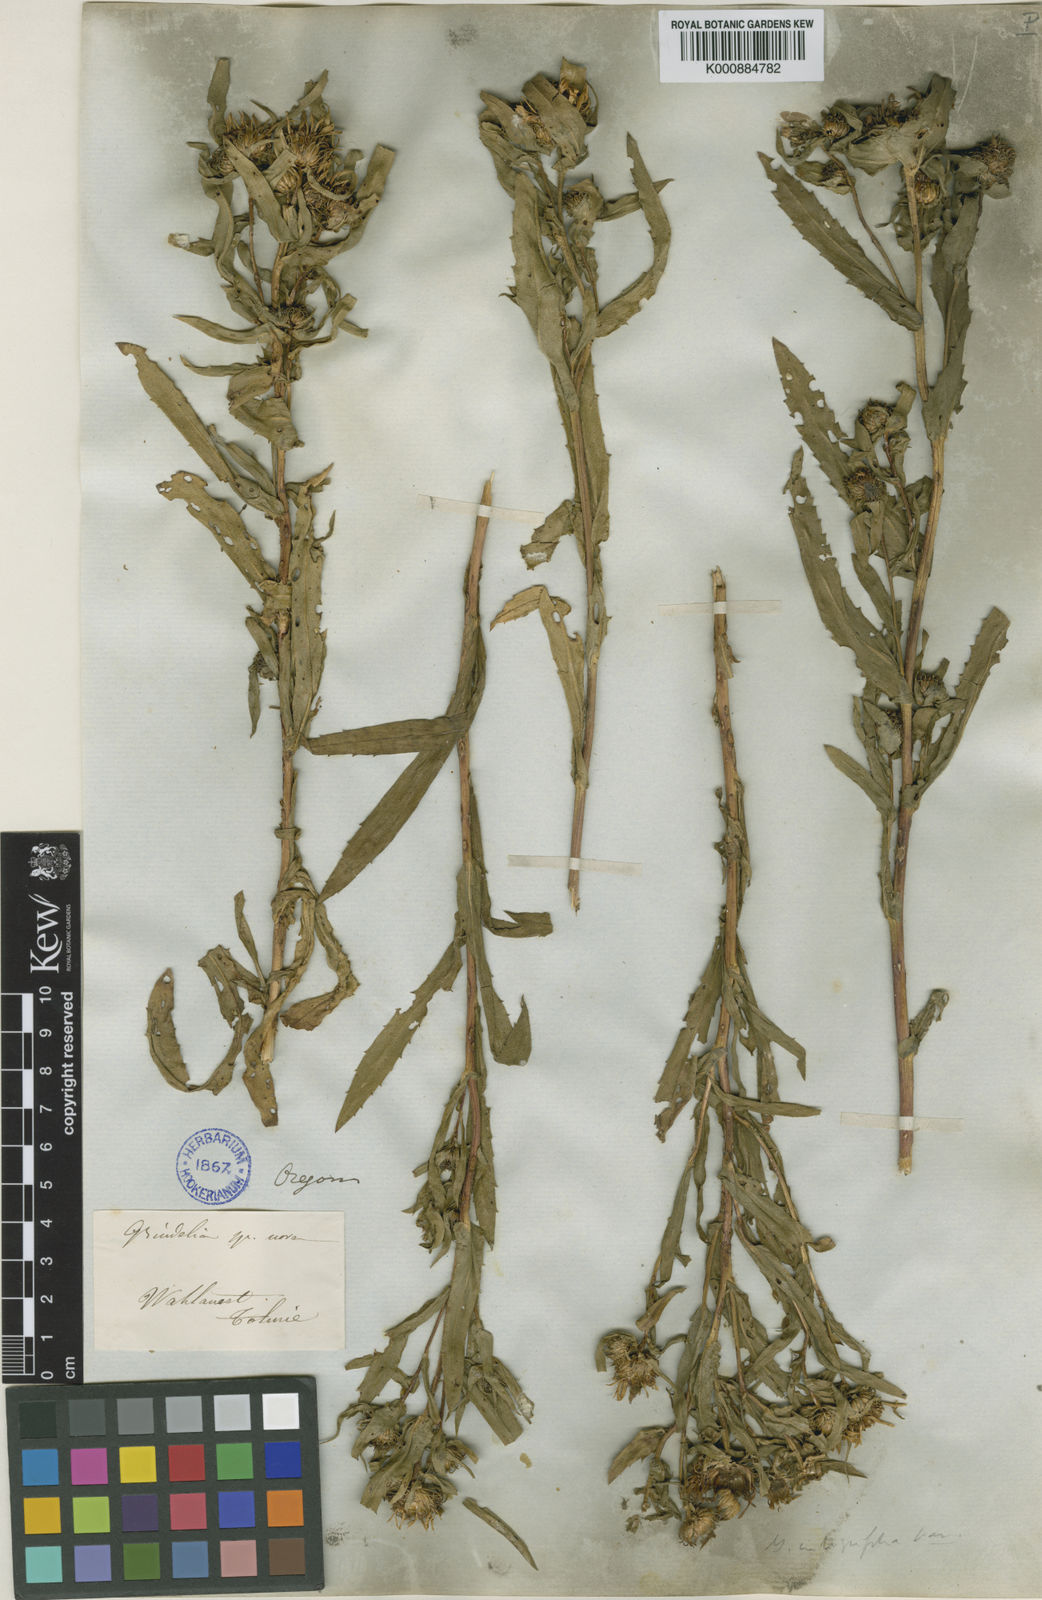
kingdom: Plantae
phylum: Tracheophyta
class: Magnoliopsida
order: Asterales
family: Asteraceae
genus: Grindelia
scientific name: Grindelia
